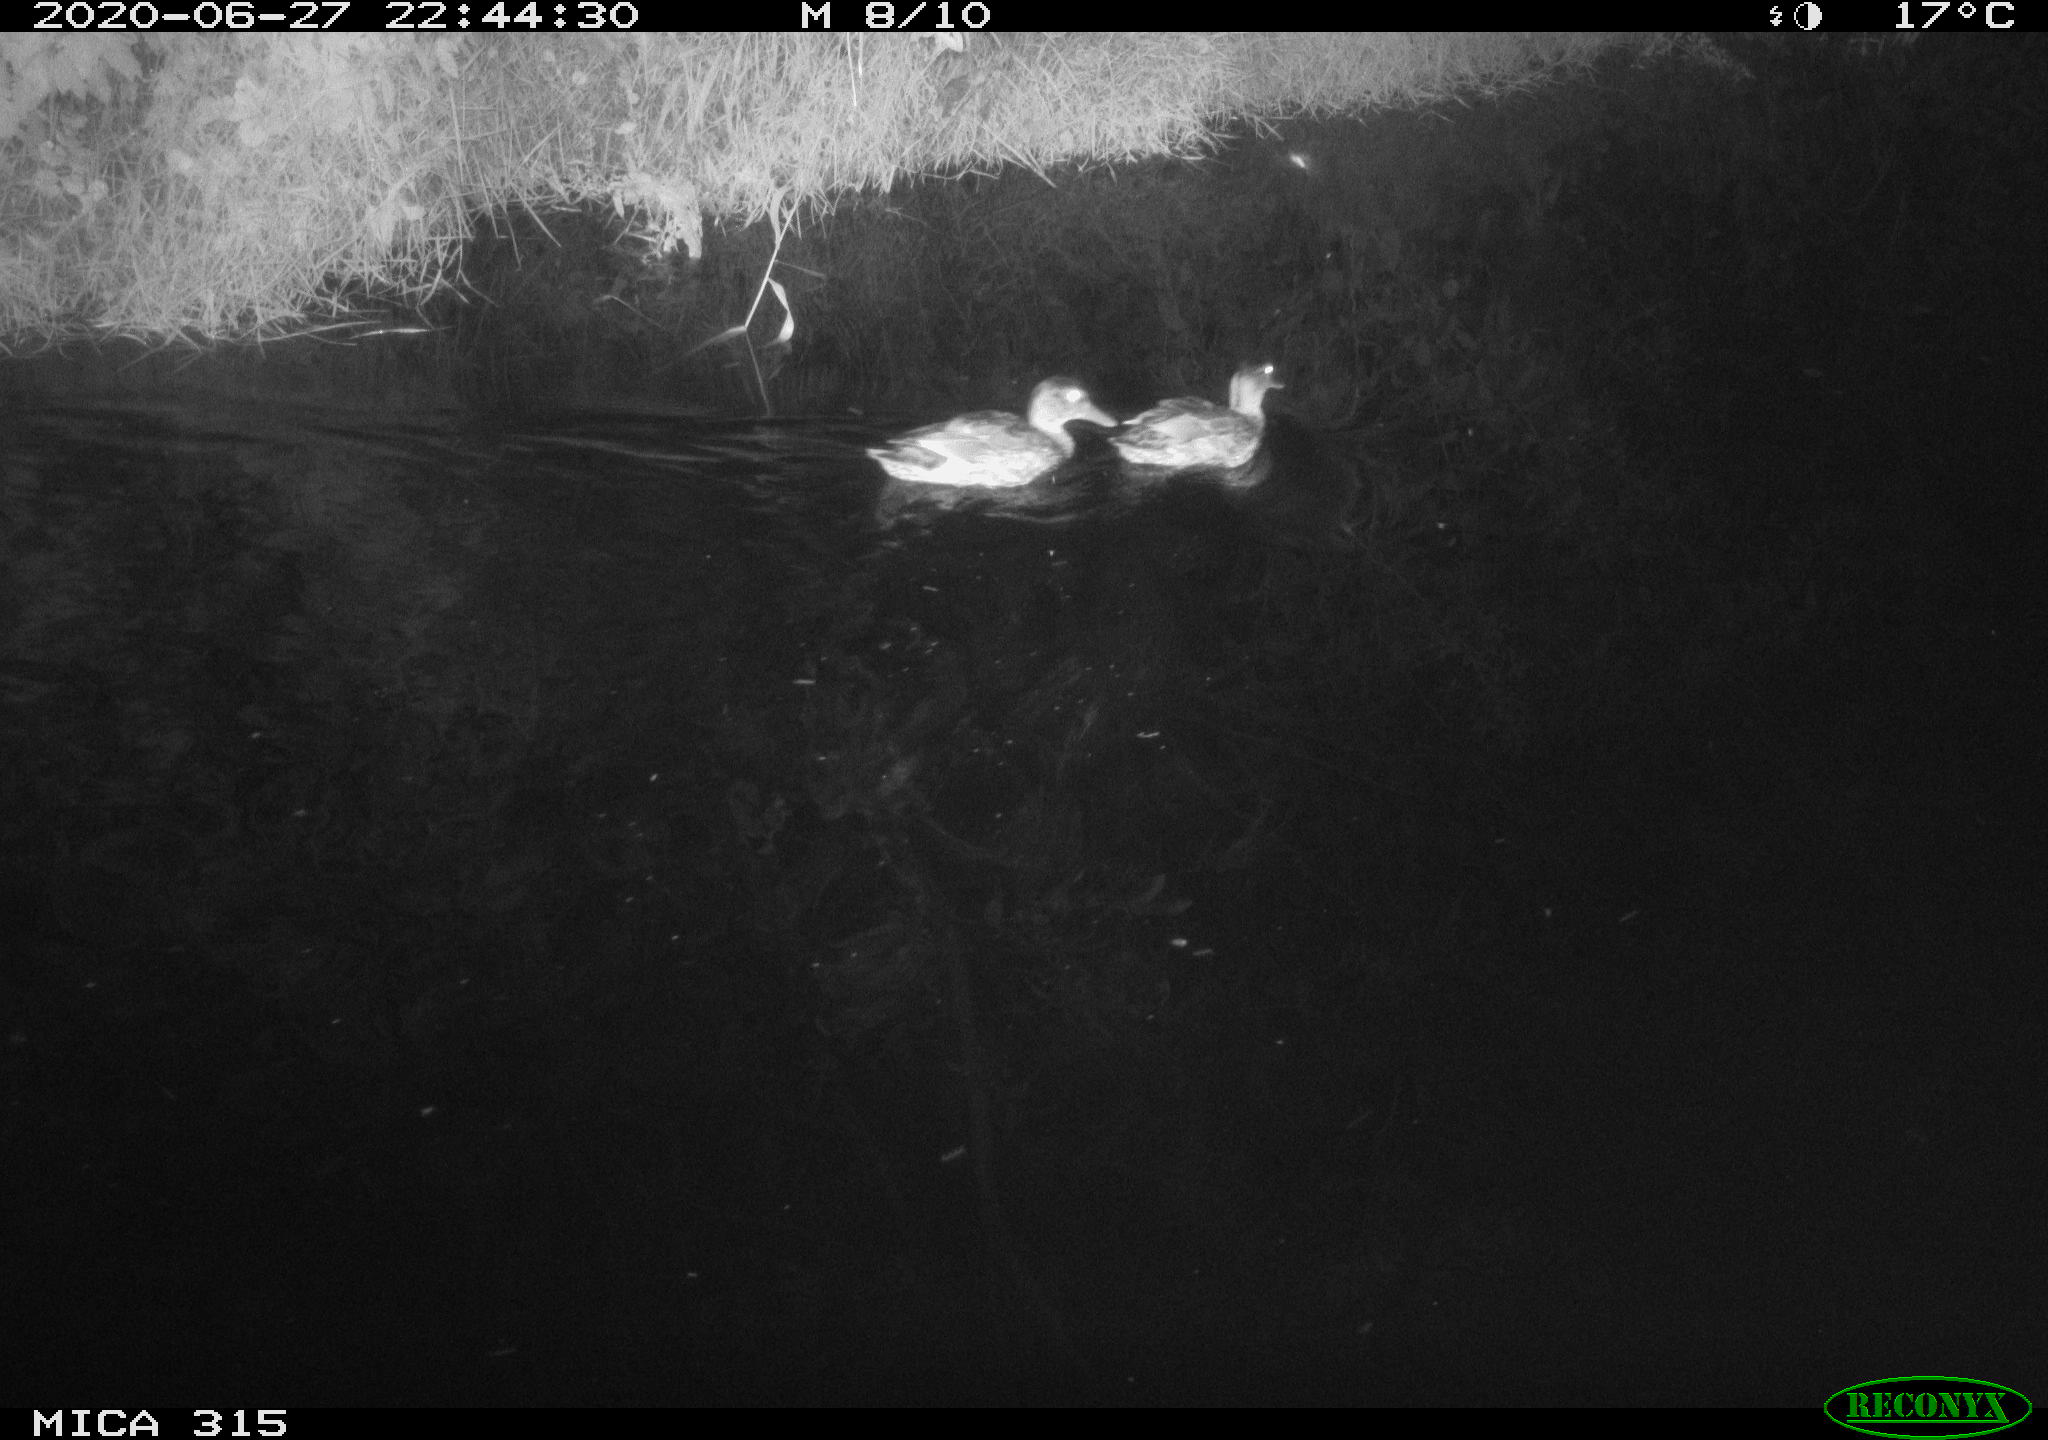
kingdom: Animalia
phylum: Chordata
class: Aves
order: Anseriformes
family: Anatidae
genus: Anas
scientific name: Anas platyrhynchos
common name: Mallard
